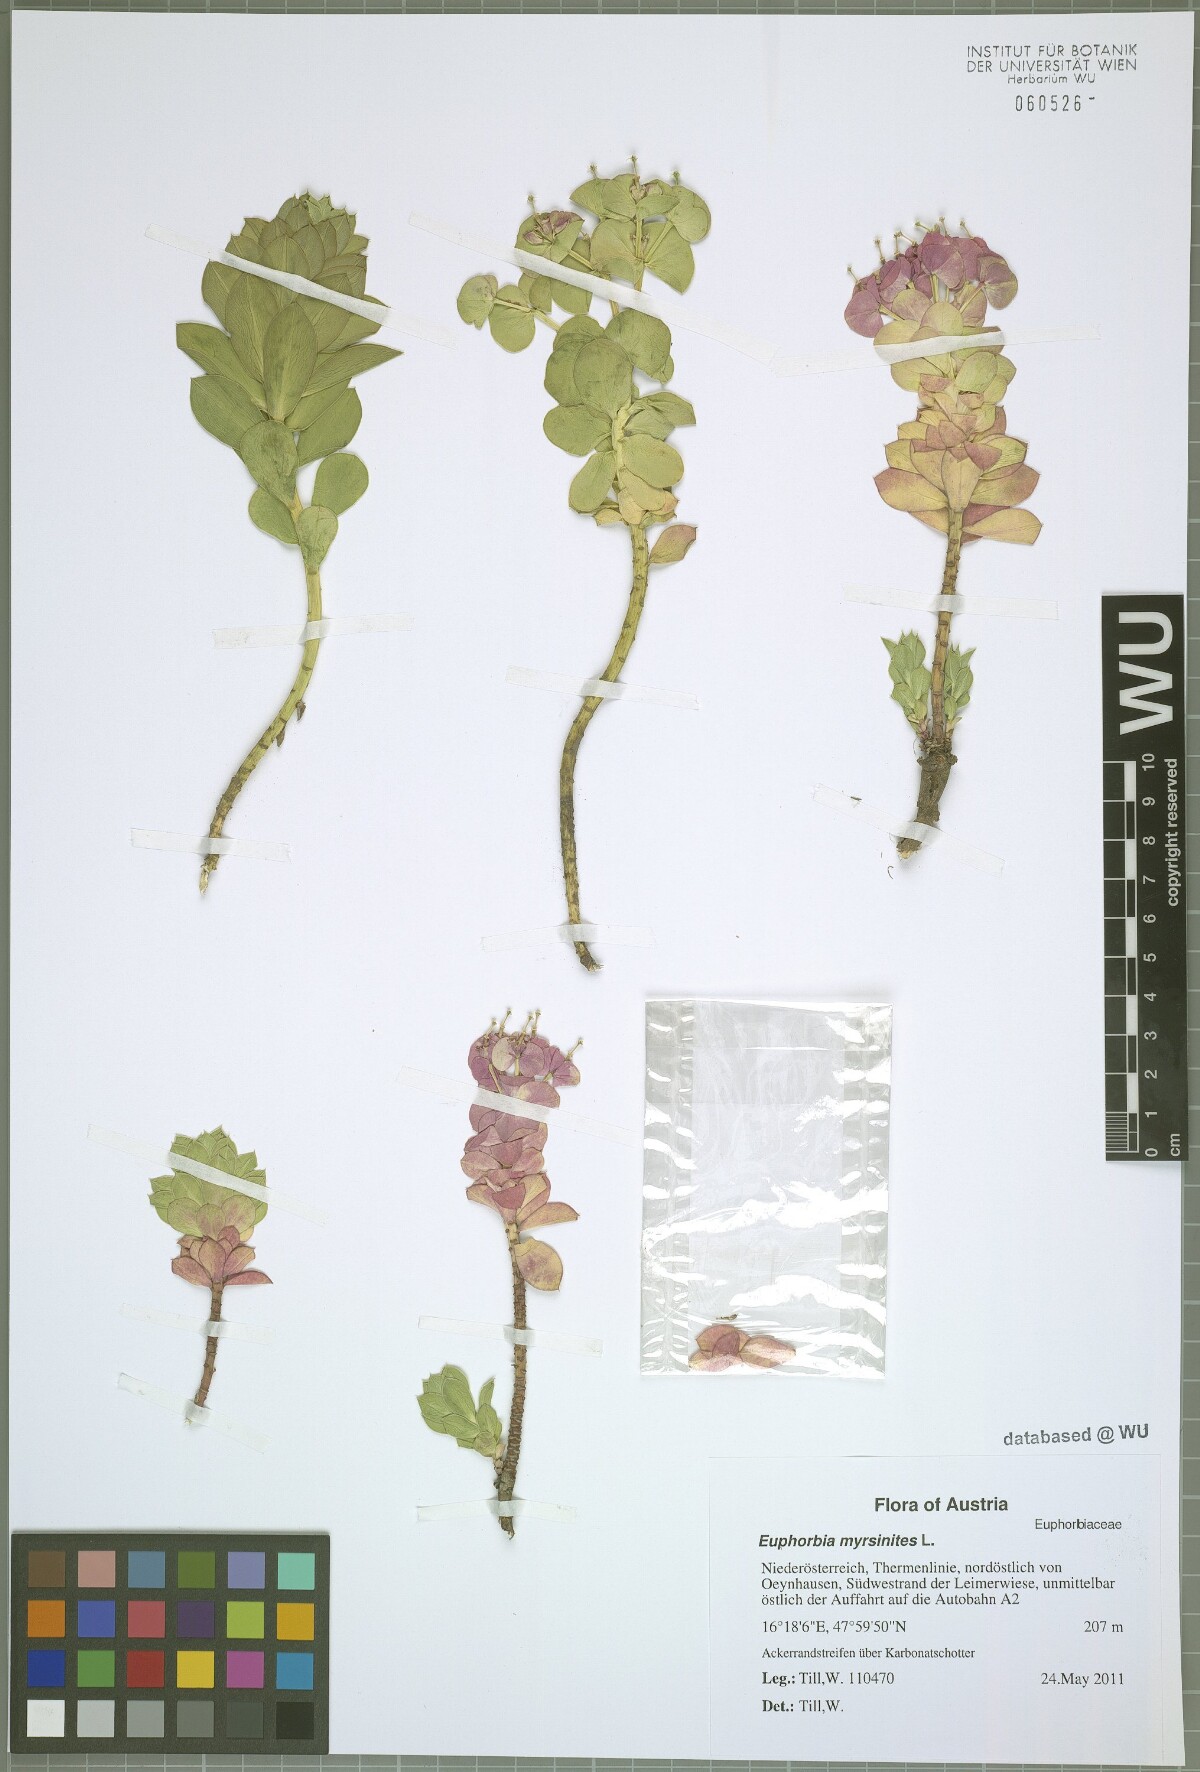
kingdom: Plantae
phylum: Tracheophyta
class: Magnoliopsida
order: Malpighiales
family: Euphorbiaceae
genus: Euphorbia
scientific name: Euphorbia myrsinites
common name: Myrtle spurge
